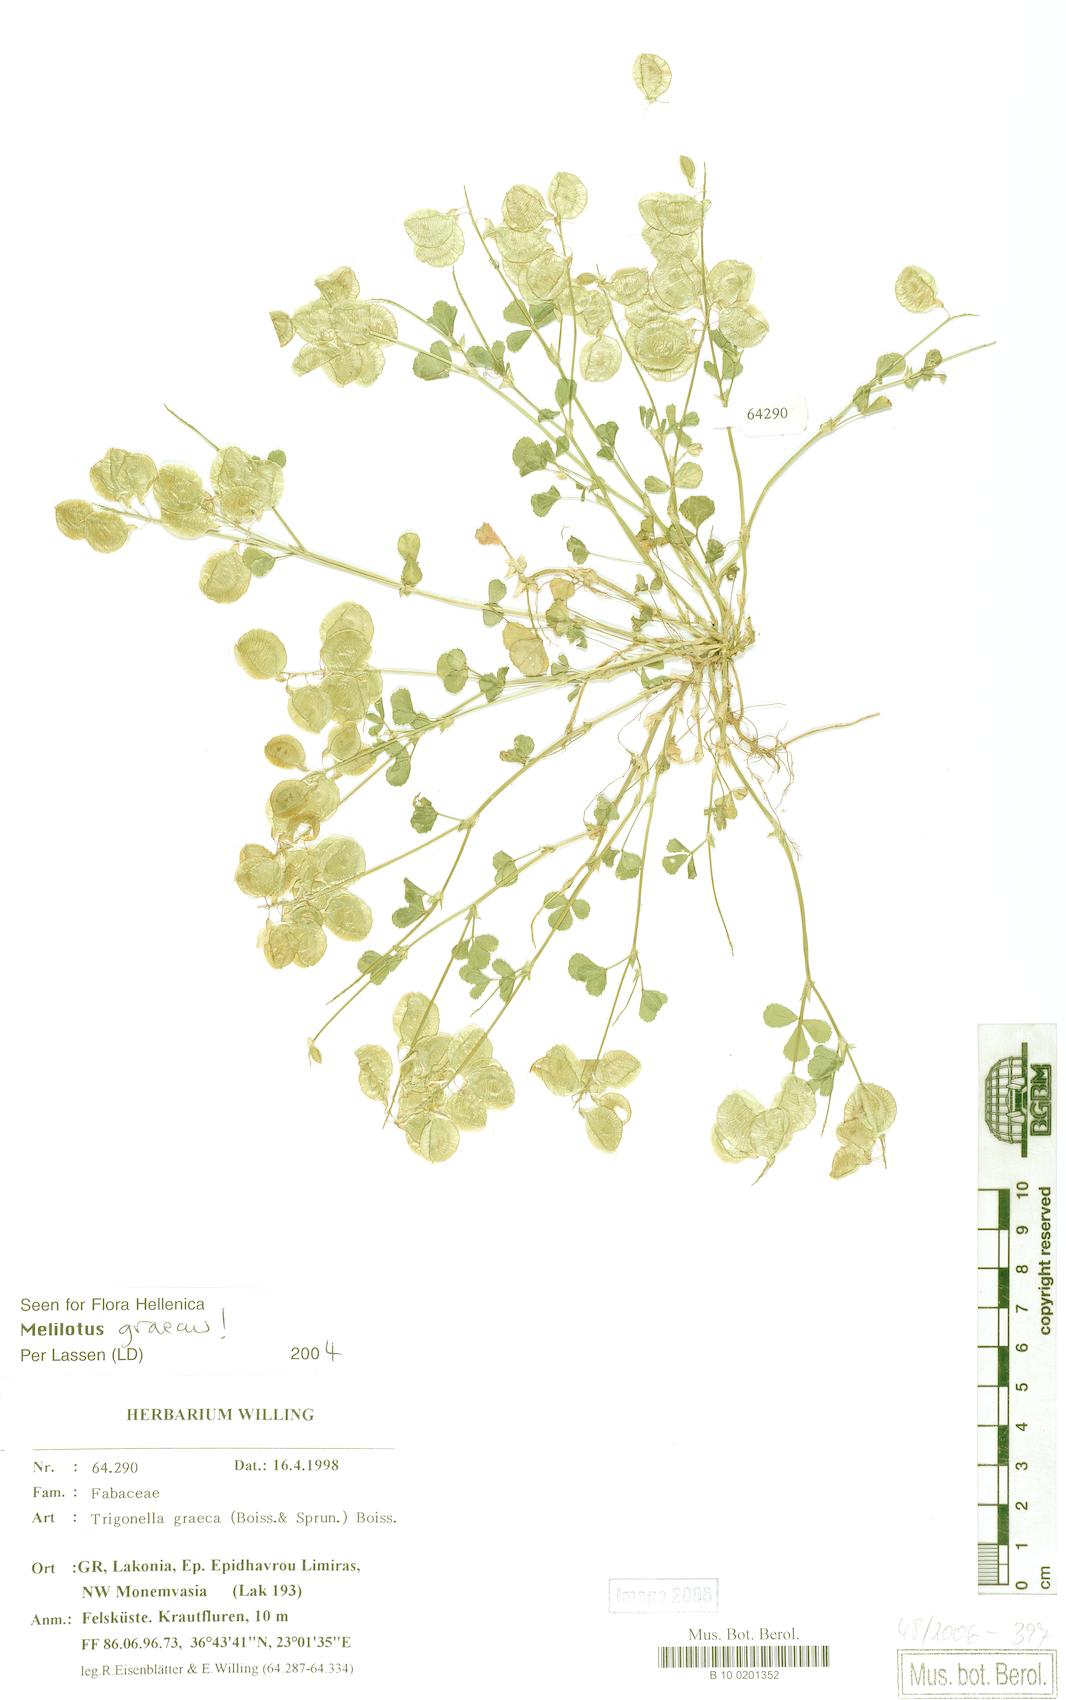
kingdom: Plantae
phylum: Tracheophyta
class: Magnoliopsida
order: Fabales
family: Fabaceae
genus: Trigonella
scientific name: Trigonella graeca
